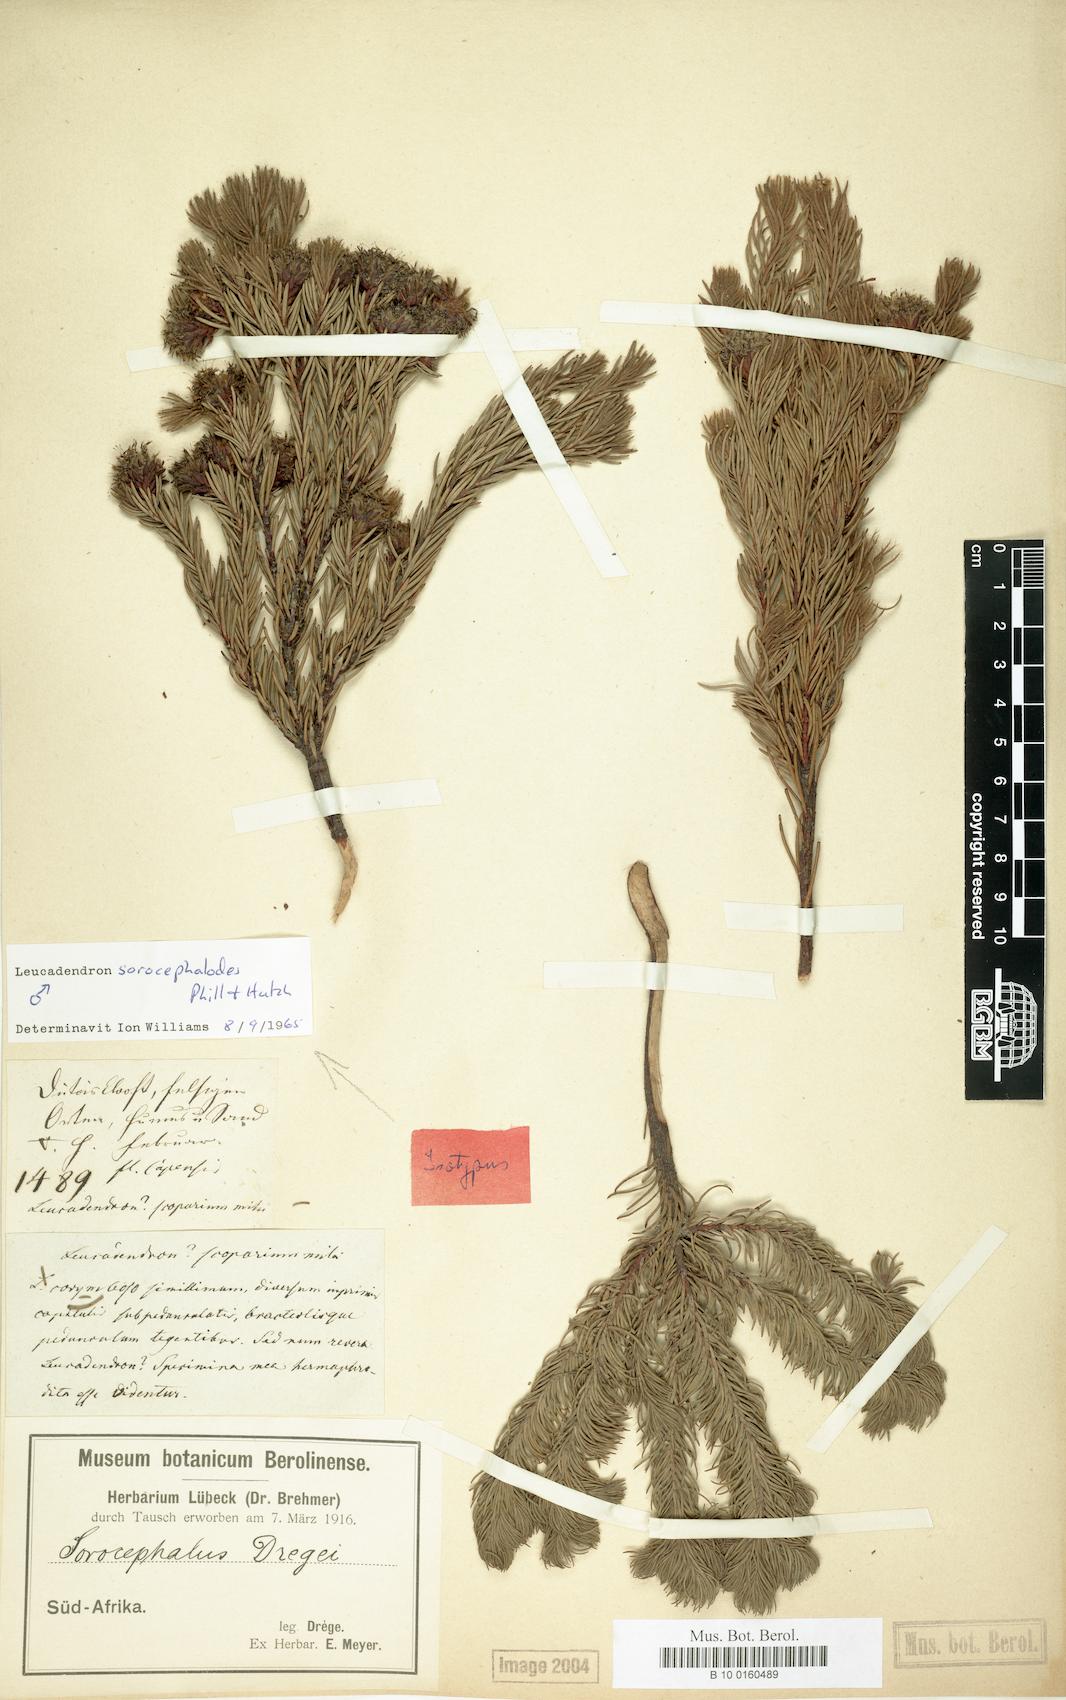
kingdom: Plantae
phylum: Tracheophyta
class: Magnoliopsida
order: Proteales
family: Proteaceae
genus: Leucadendron
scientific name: Leucadendron sorocephalodes
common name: Woolly conebush
